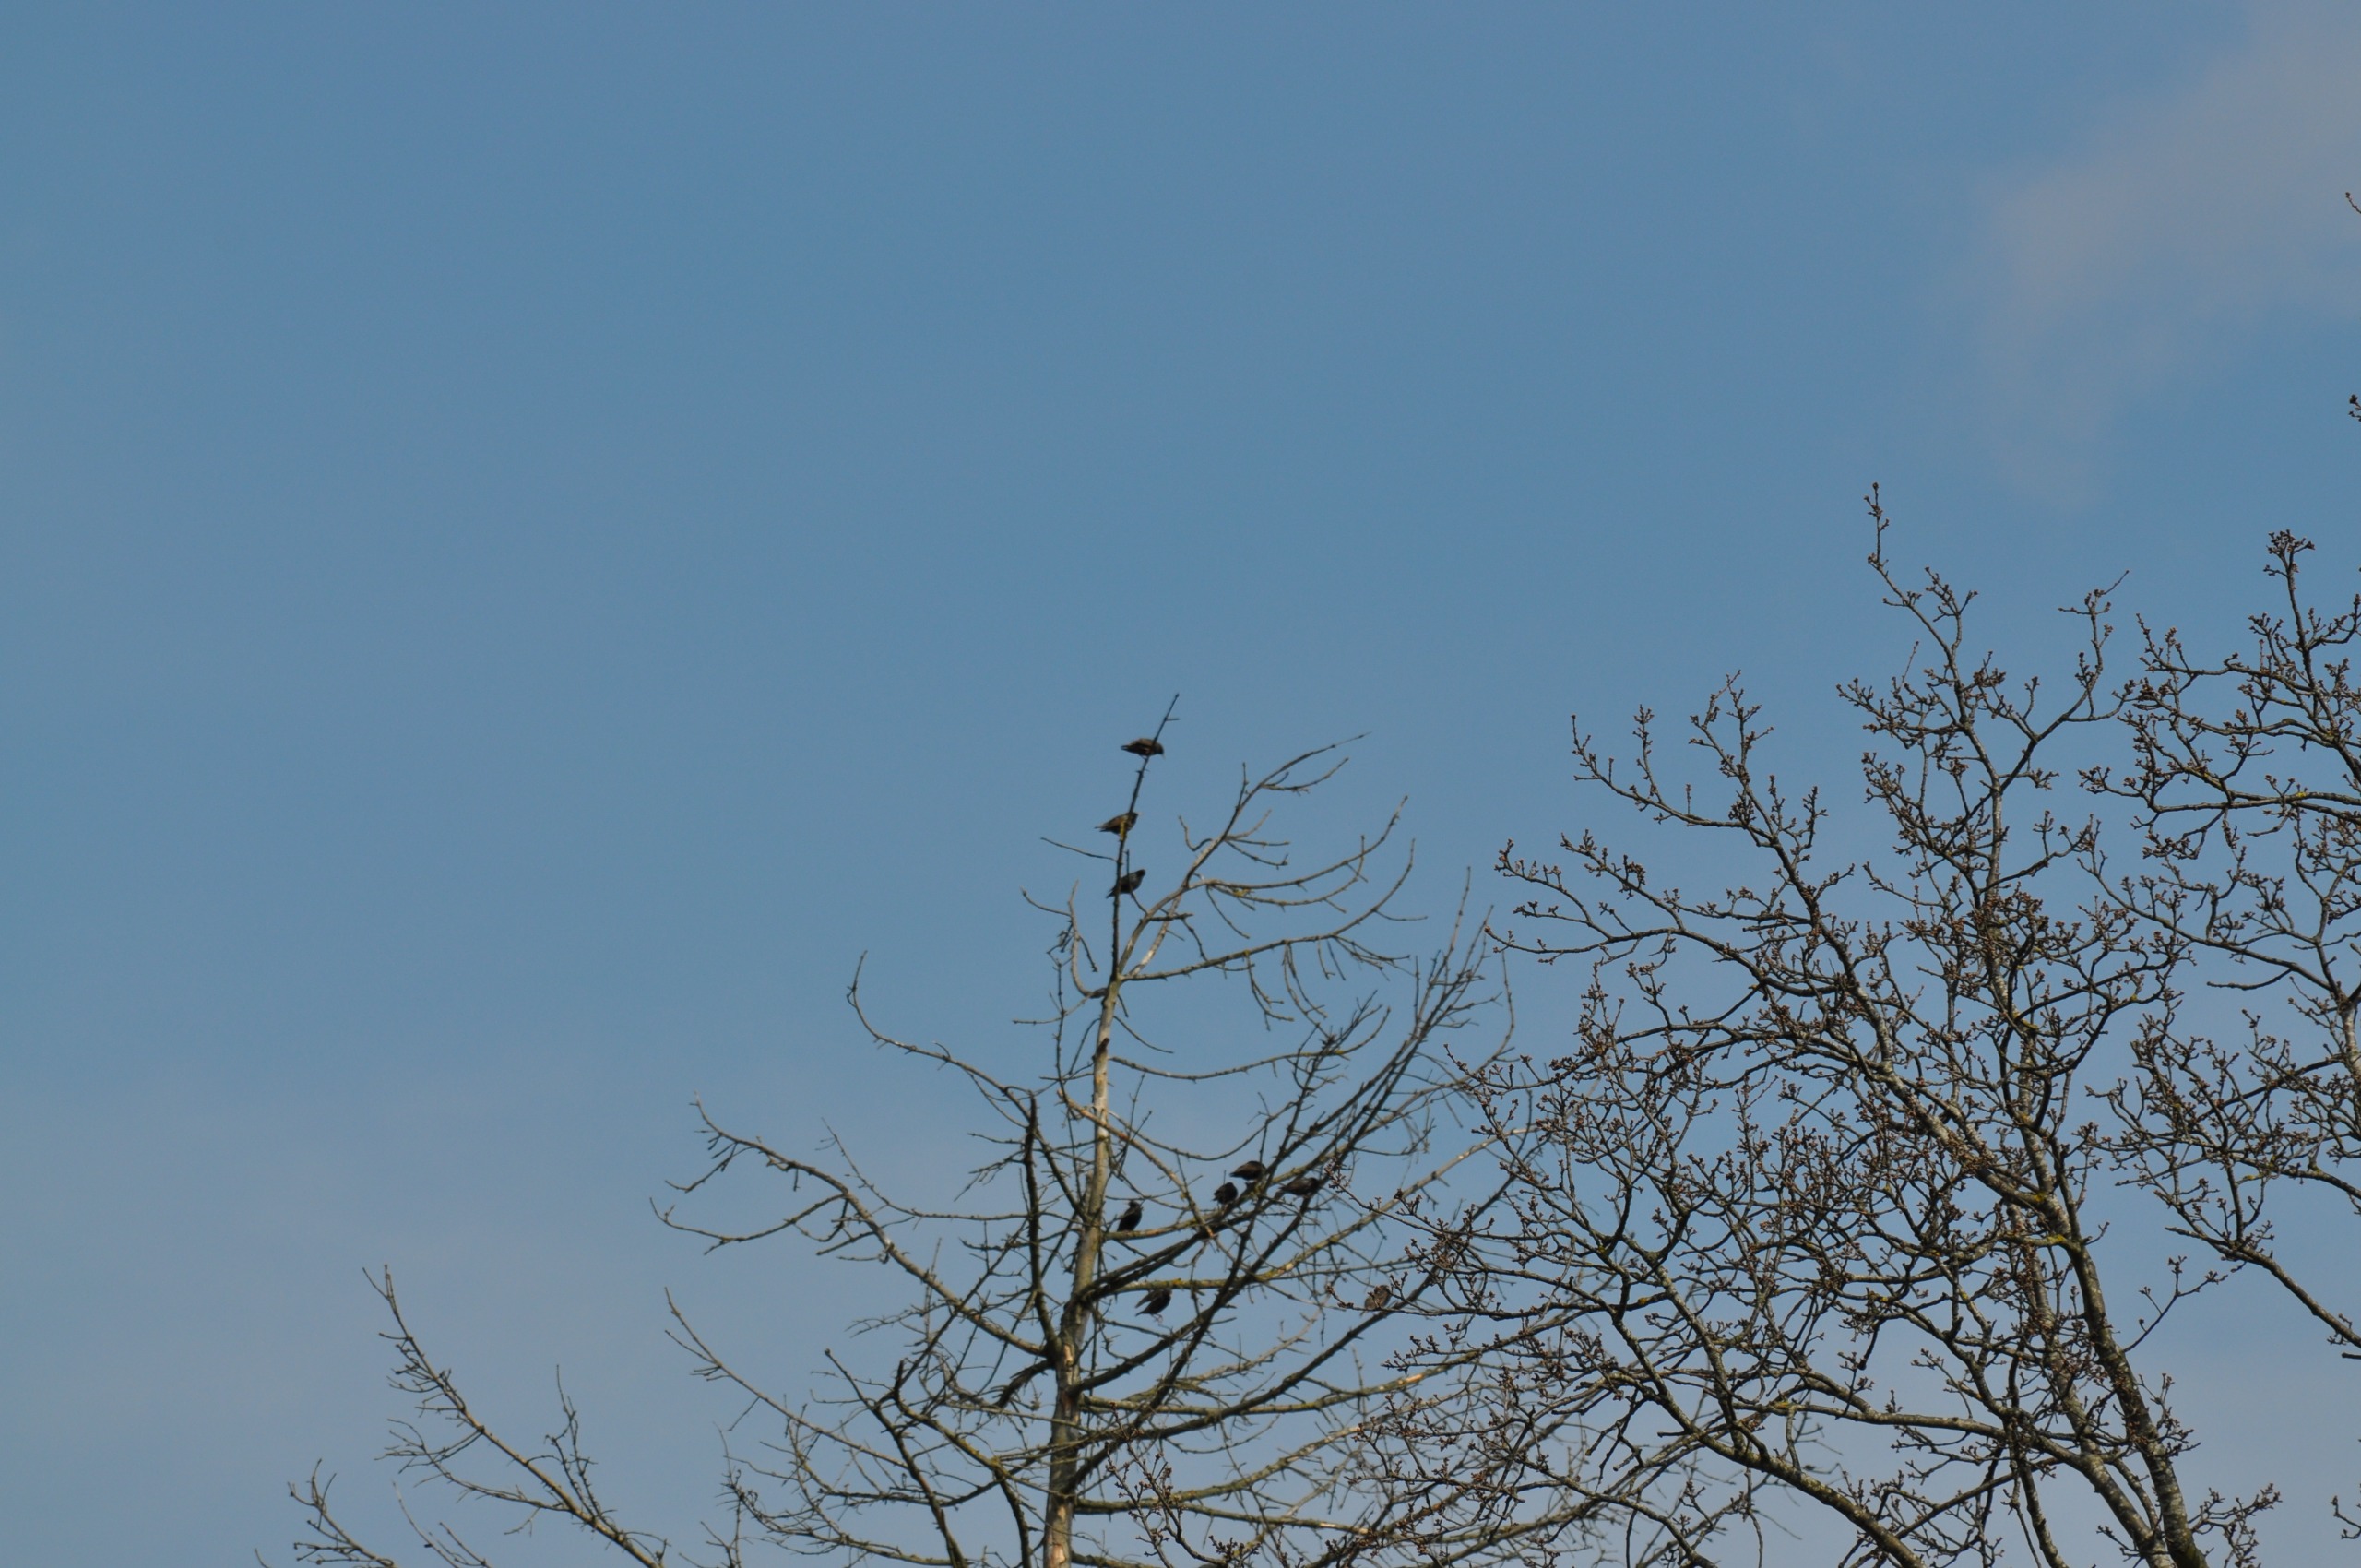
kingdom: Animalia
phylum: Chordata
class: Aves
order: Passeriformes
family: Sturnidae
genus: Sturnus
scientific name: Sturnus vulgaris
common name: Stær
